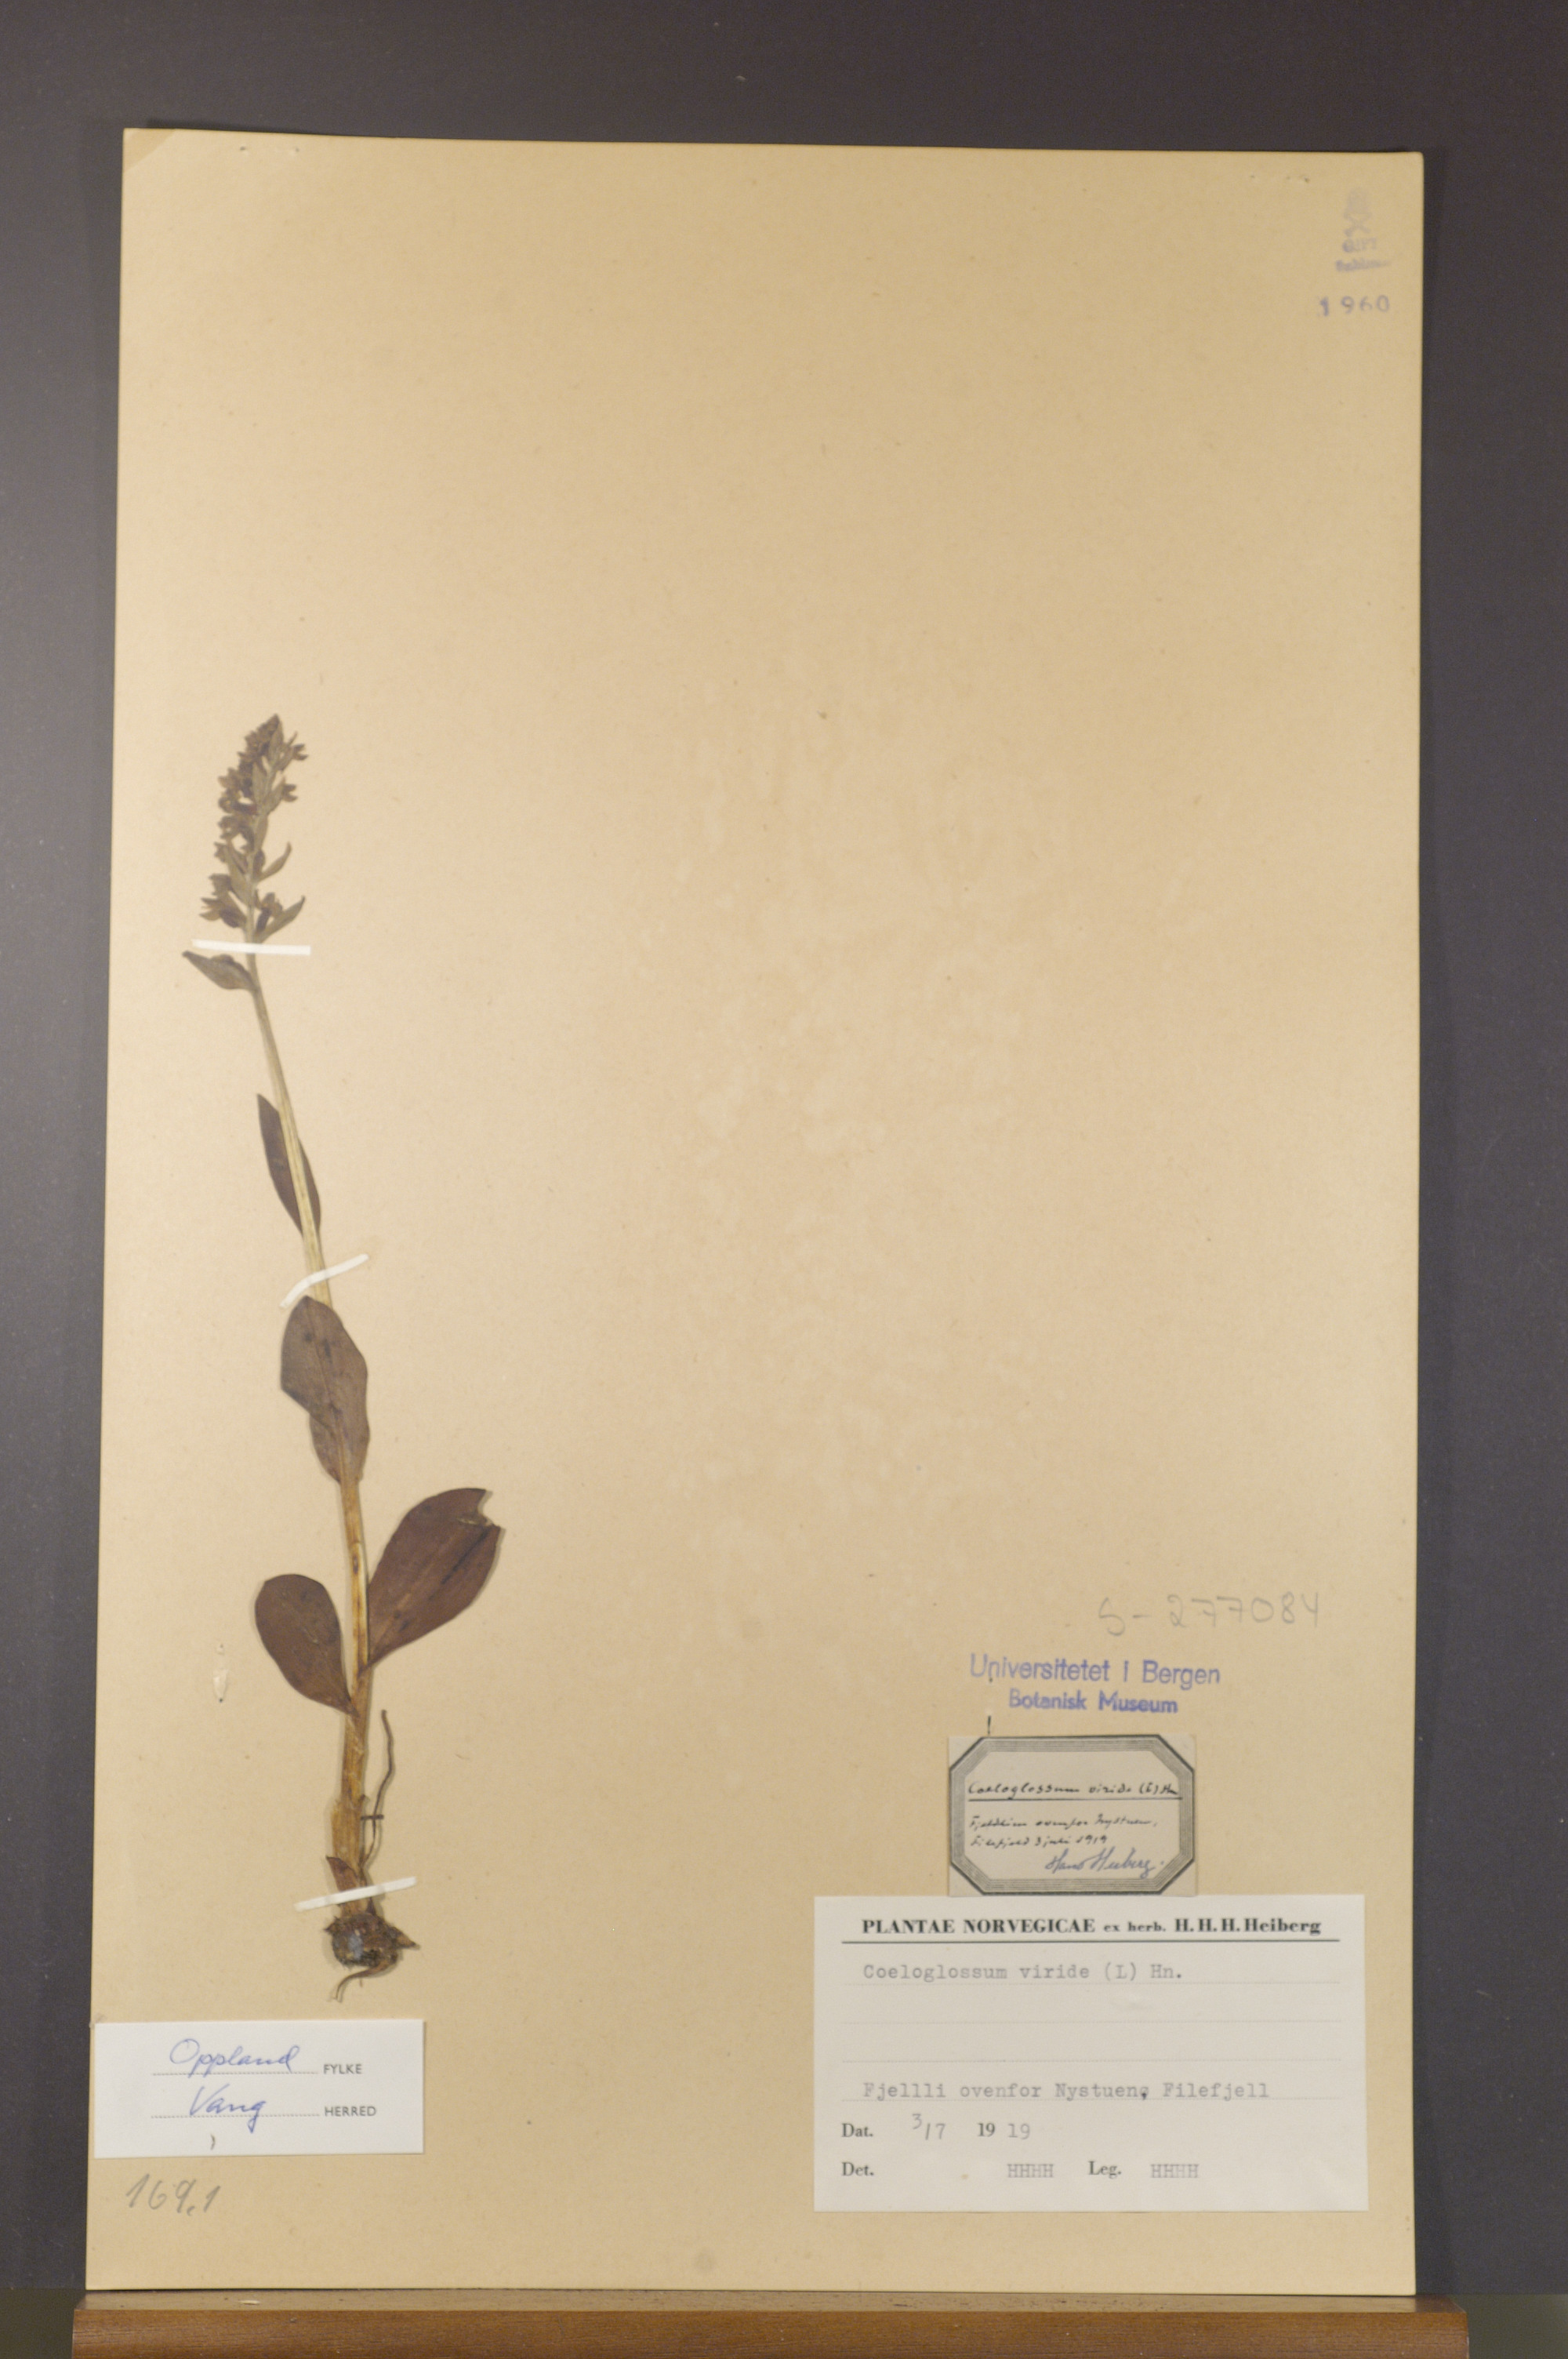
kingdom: Plantae
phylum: Tracheophyta
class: Liliopsida
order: Asparagales
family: Orchidaceae
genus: Dactylorhiza
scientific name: Dactylorhiza viridis
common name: Longbract frog orchid
